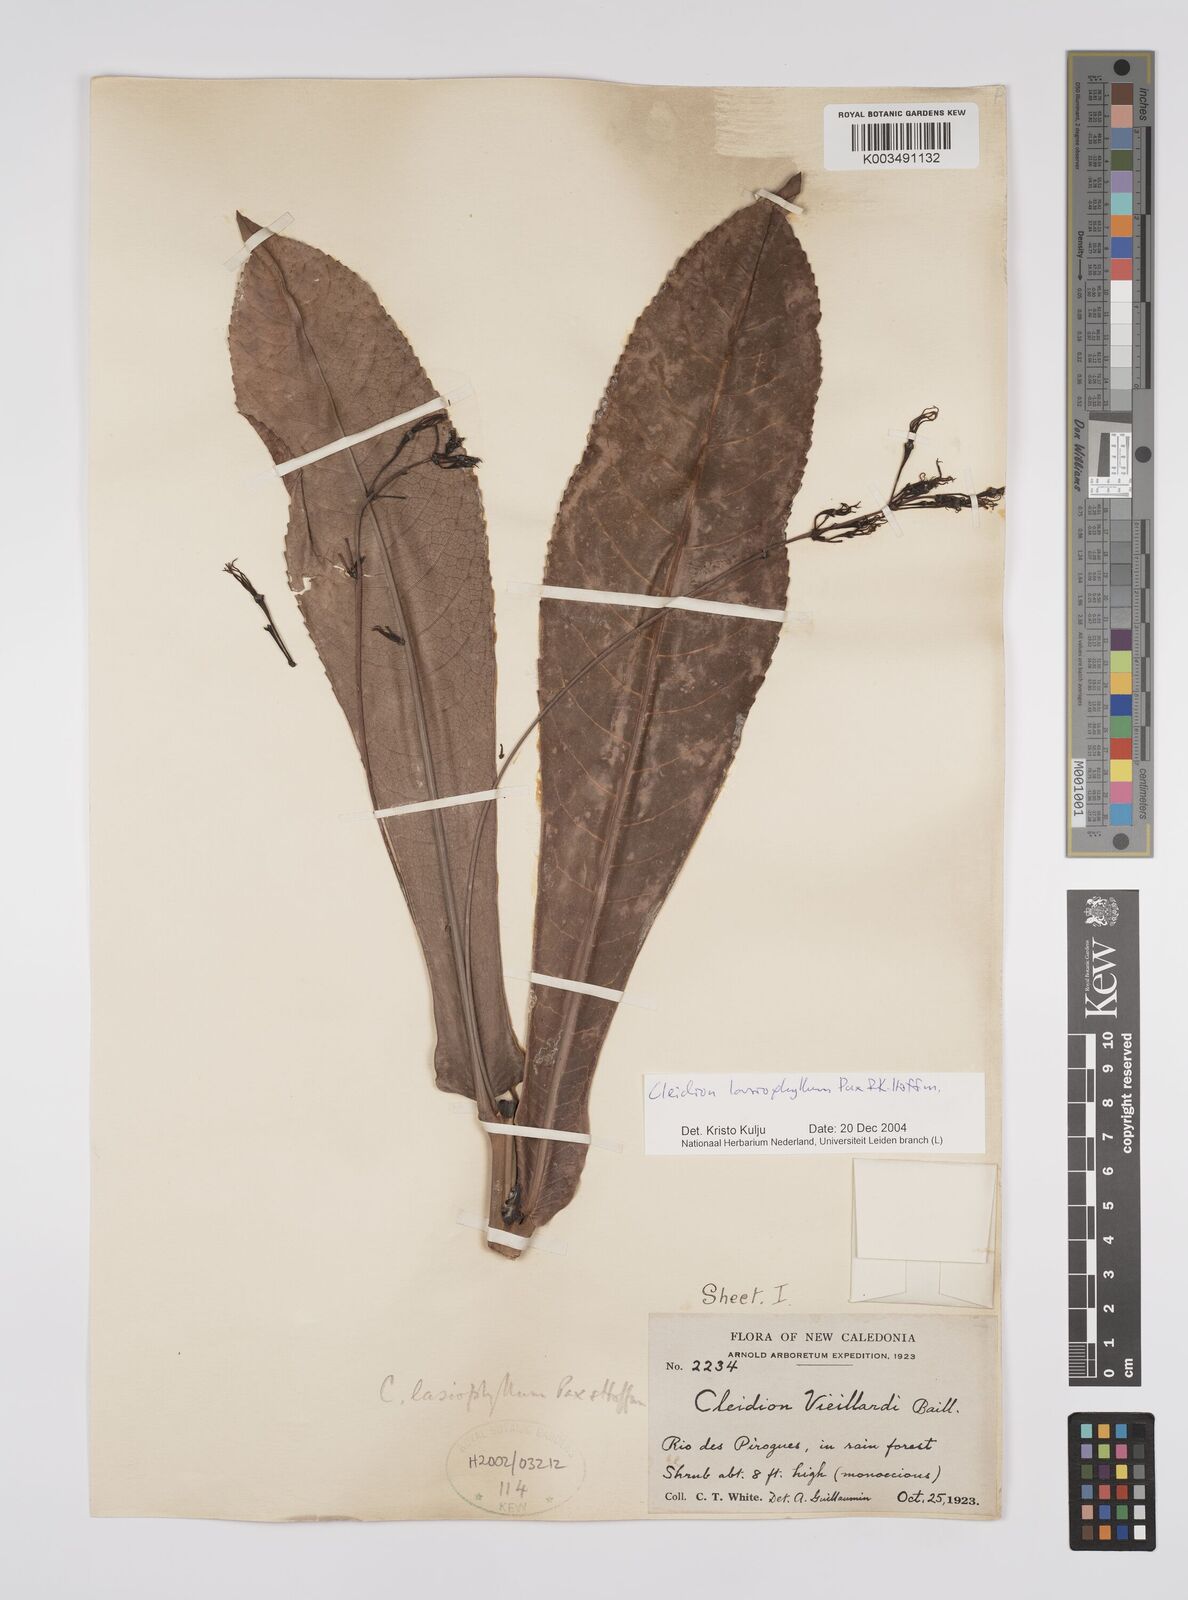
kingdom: Plantae
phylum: Tracheophyta
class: Magnoliopsida
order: Malpighiales
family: Euphorbiaceae
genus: Cleidion
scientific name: Cleidion lasiophyllum
